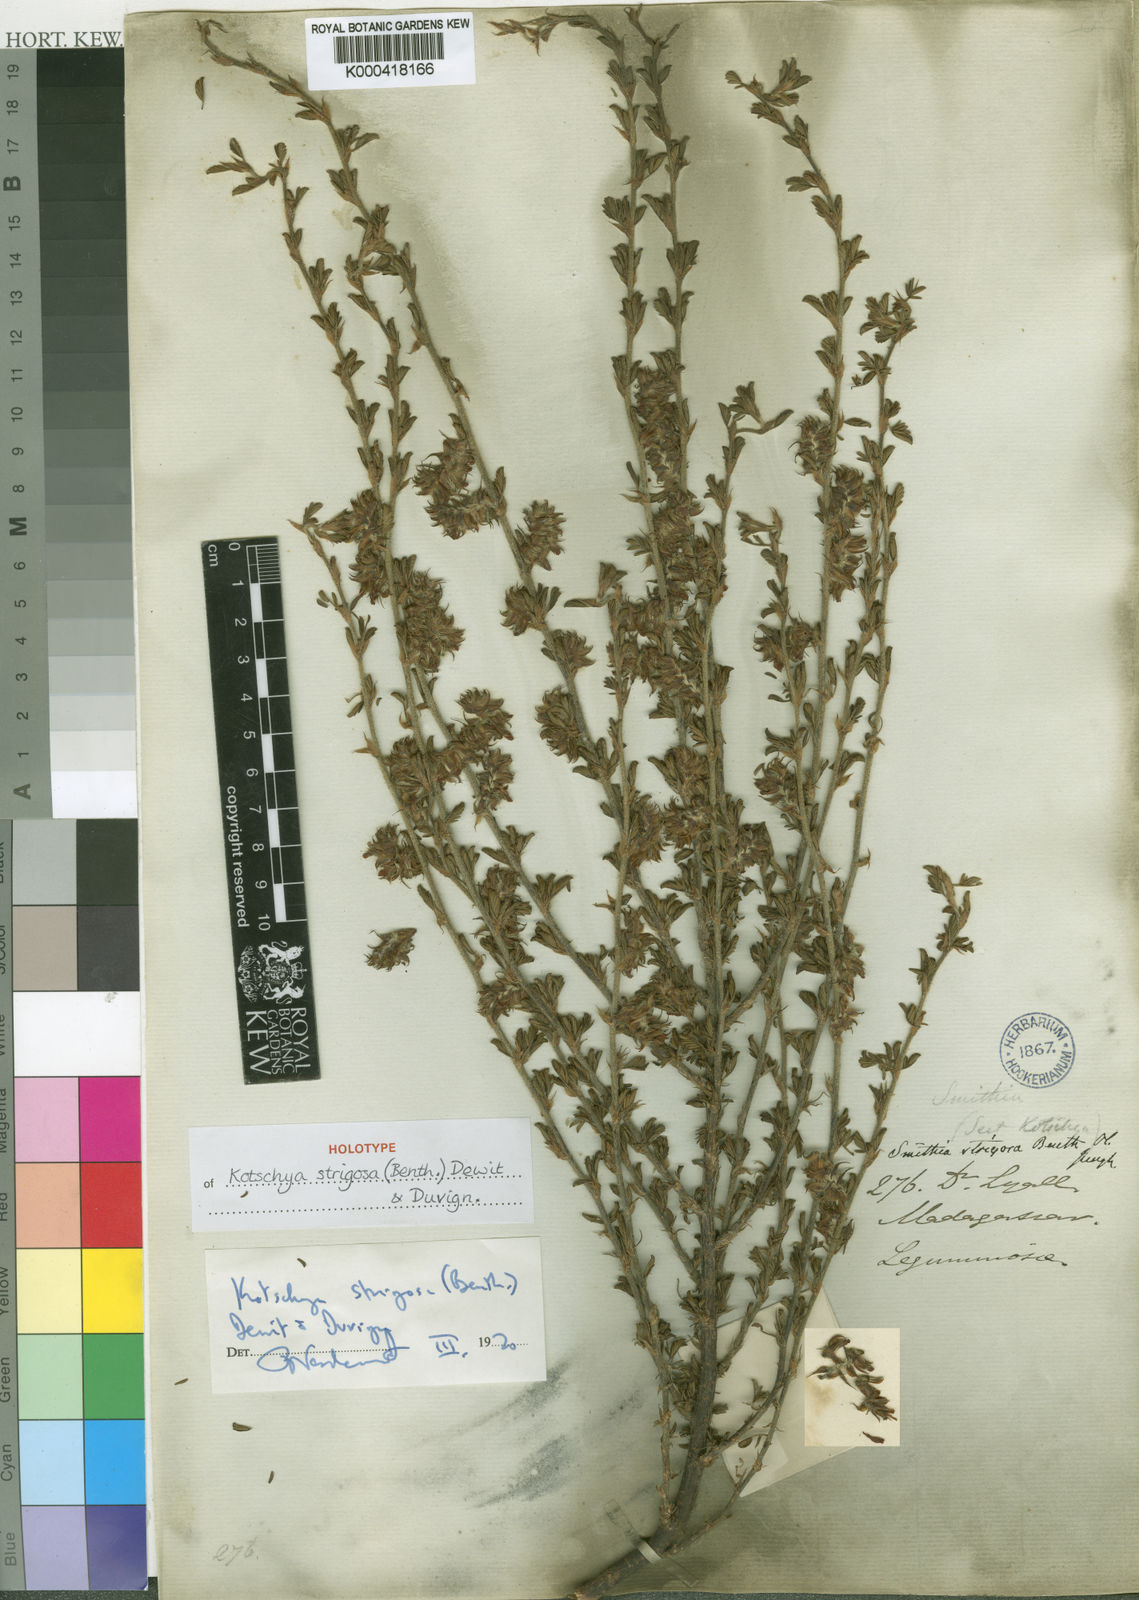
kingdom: Plantae
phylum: Tracheophyta
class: Magnoliopsida
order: Fabales
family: Fabaceae
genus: Kotschya
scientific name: Kotschya strigosa
